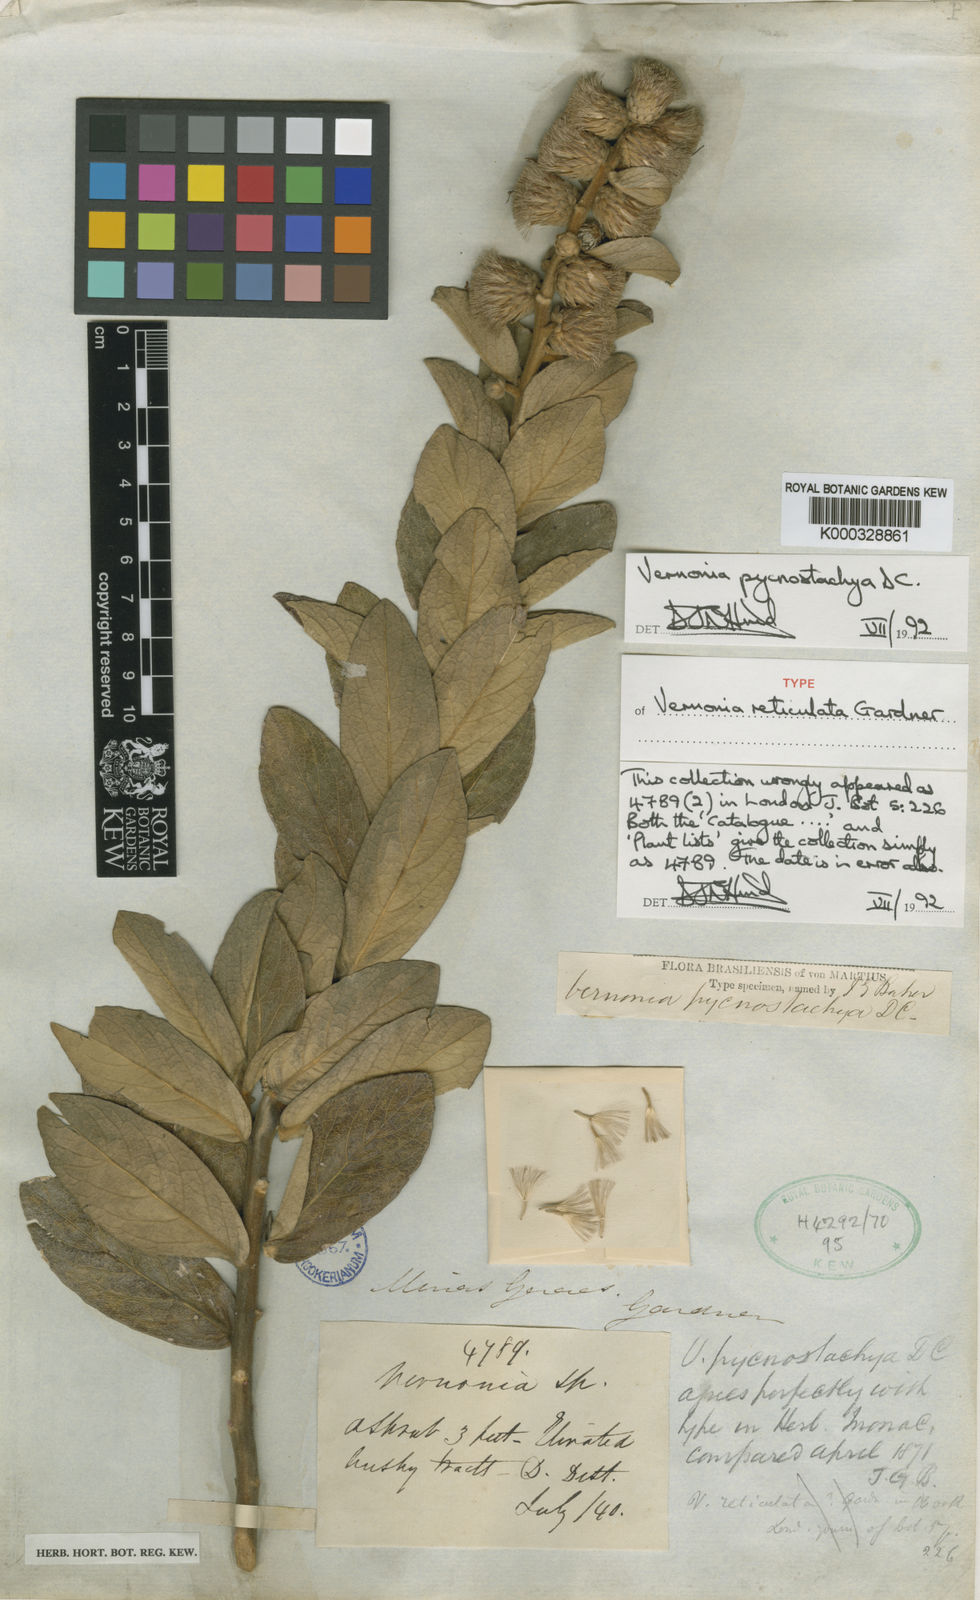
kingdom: Plantae
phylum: Tracheophyta
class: Magnoliopsida
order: Asterales
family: Asteraceae
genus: Lessingianthus
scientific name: Lessingianthus pycnostachyus
